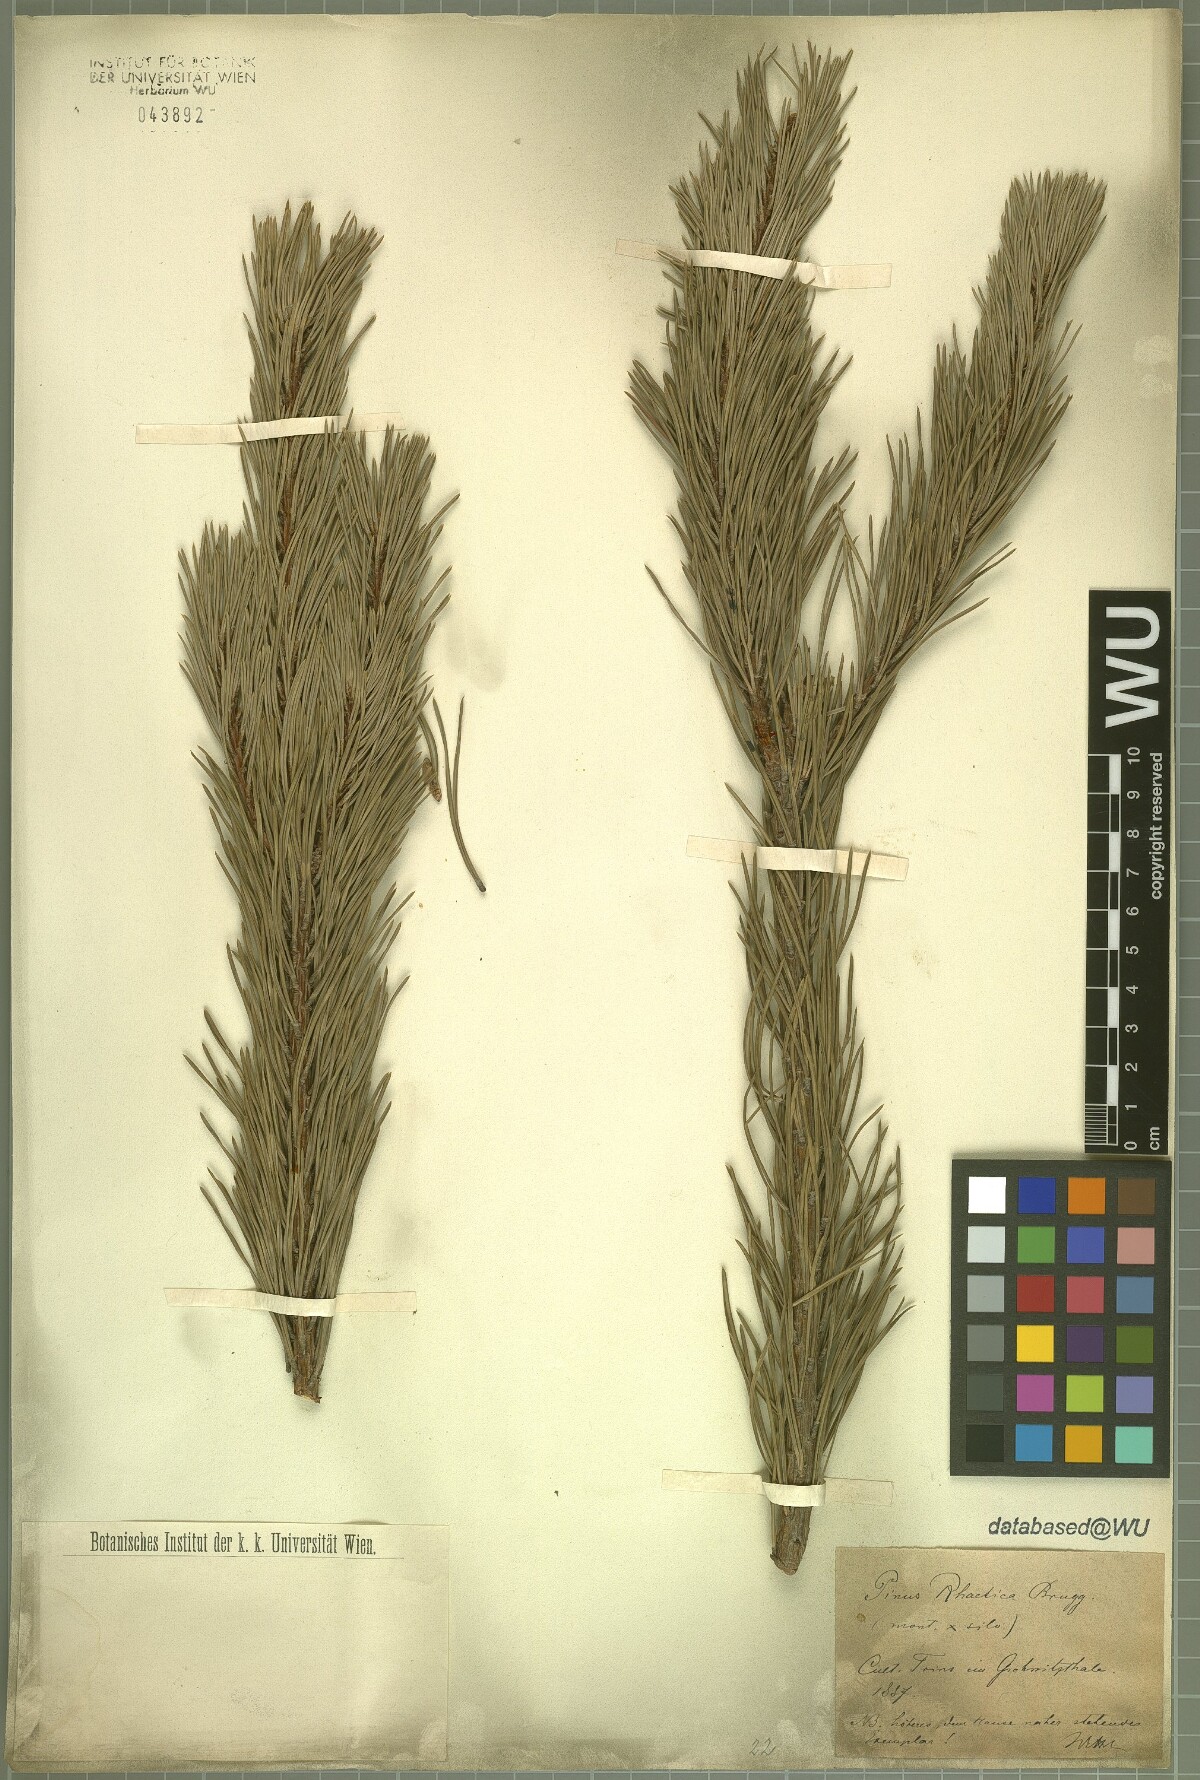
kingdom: Plantae
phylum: Tracheophyta
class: Pinopsida
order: Pinales
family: Pinaceae
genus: Pinus
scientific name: Pinus rhaetica
